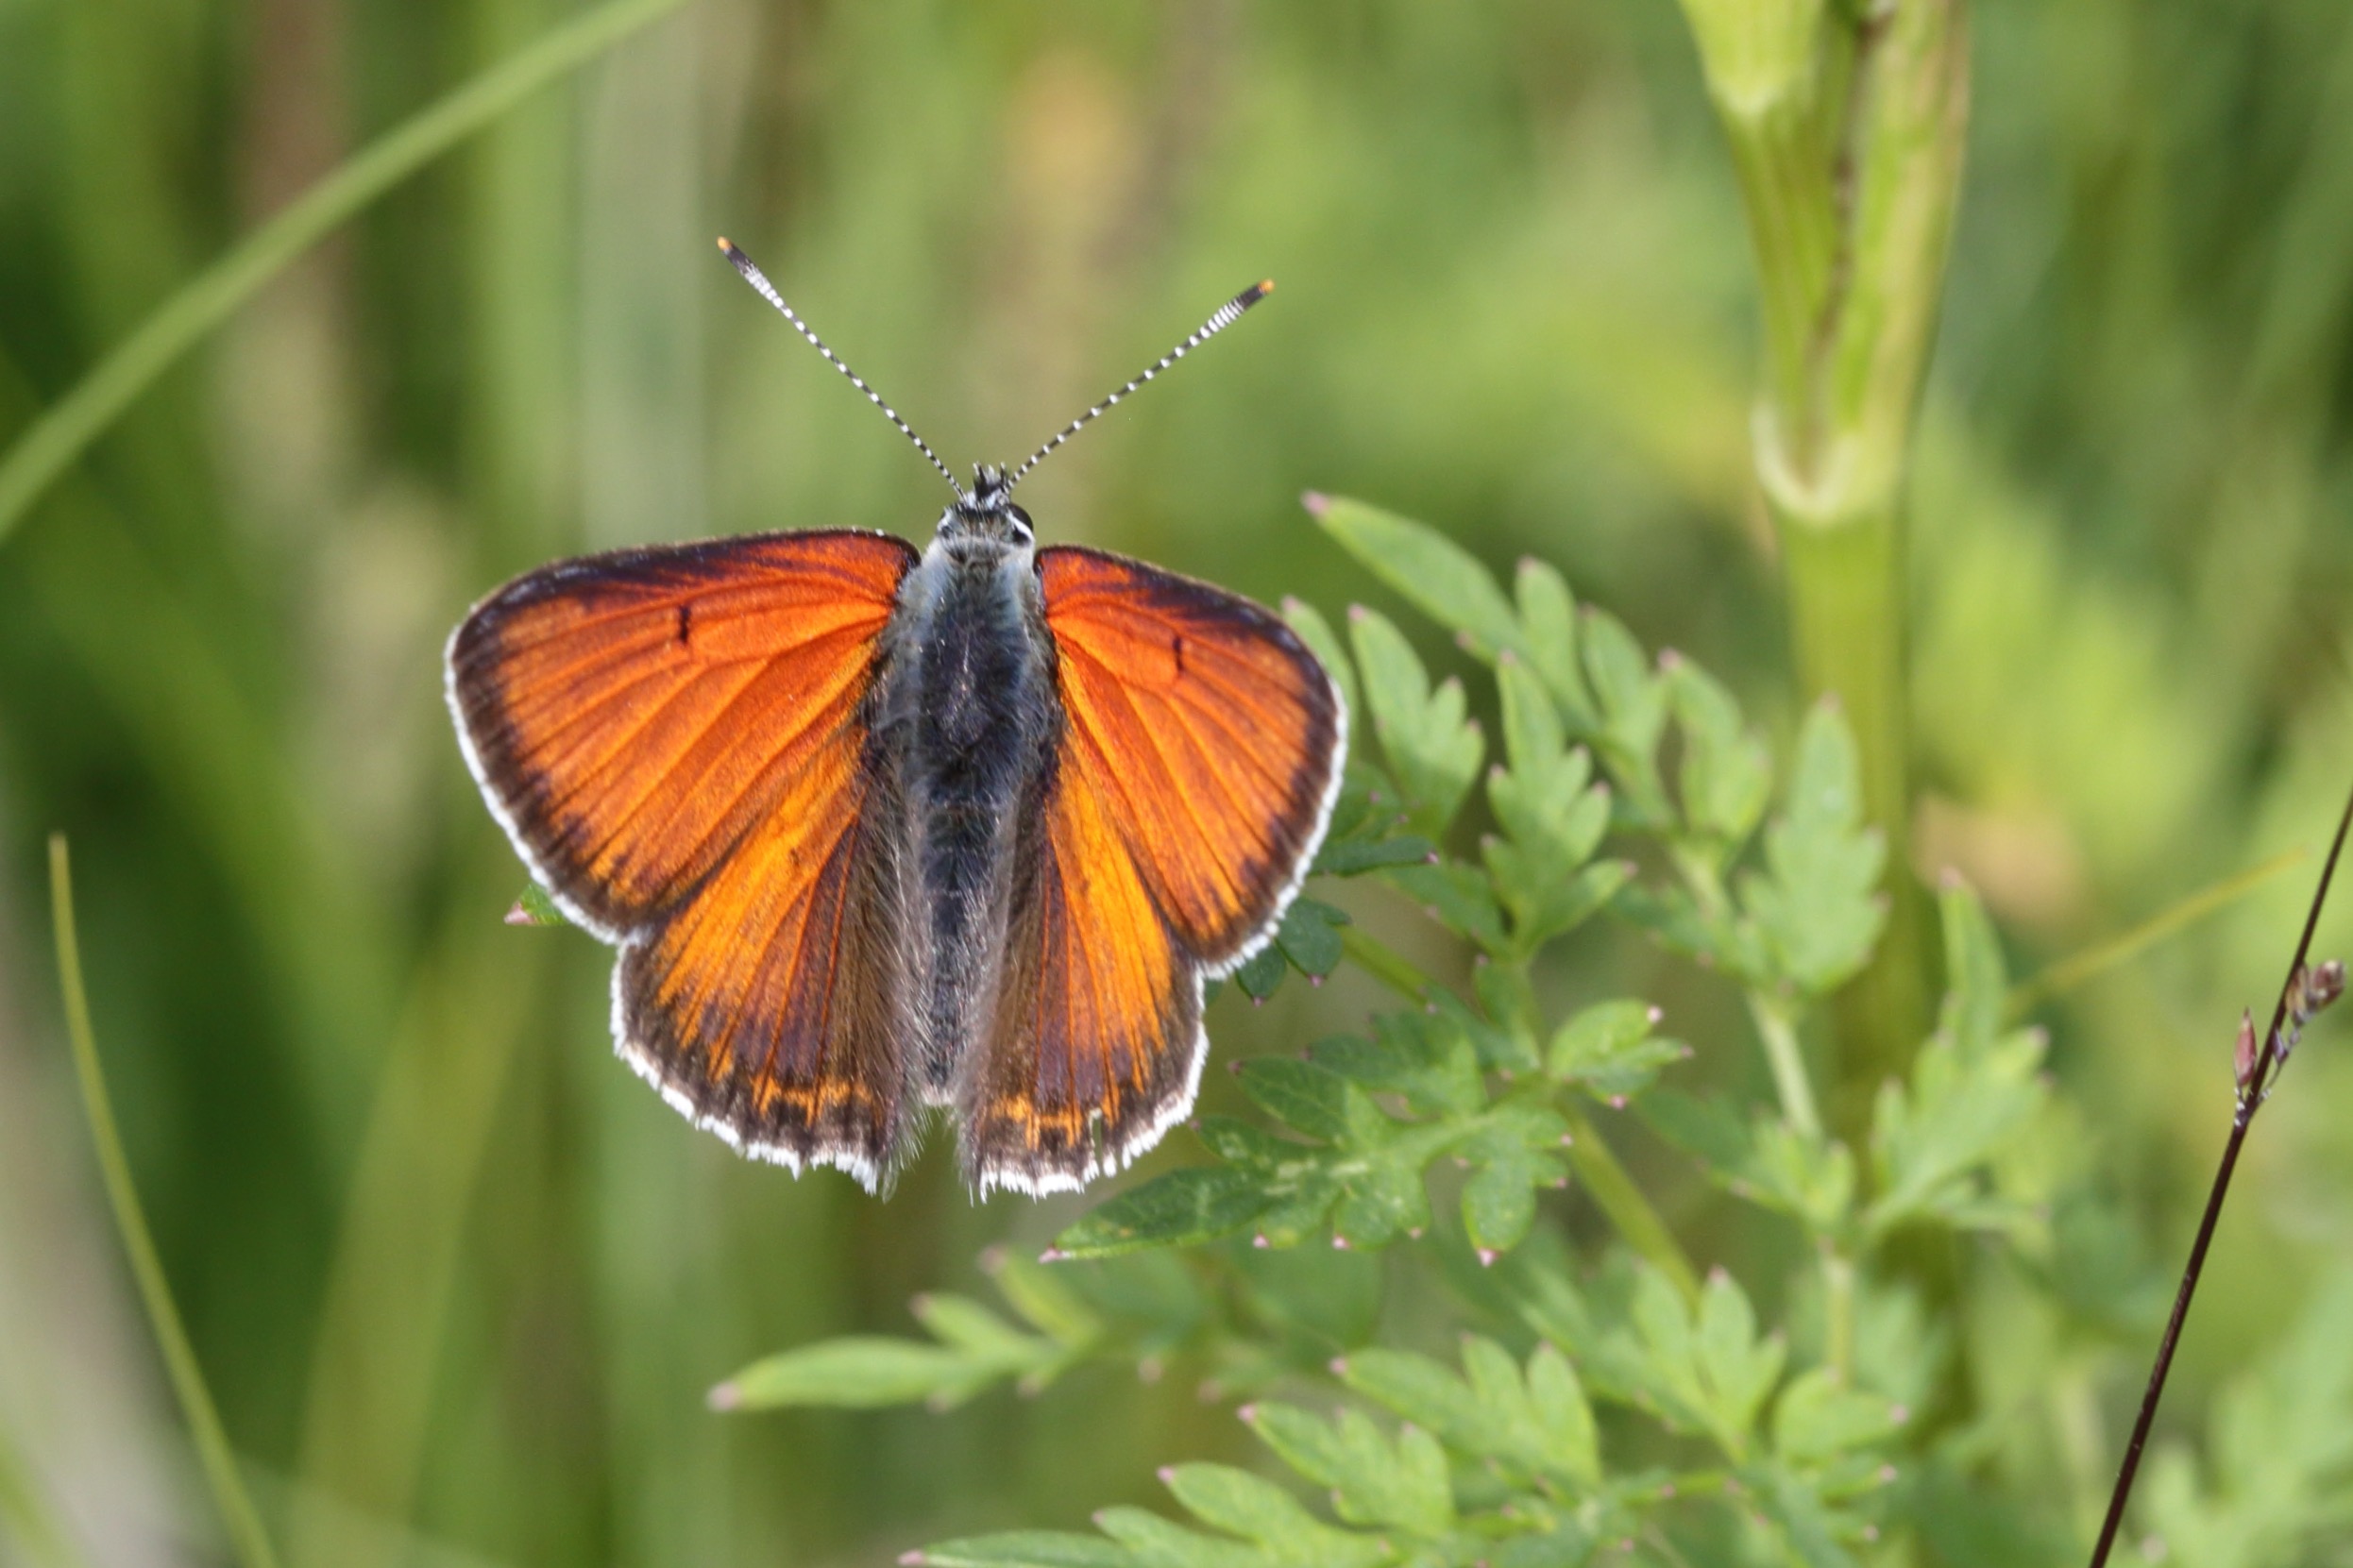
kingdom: Animalia
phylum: Arthropoda
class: Insecta
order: Lepidoptera
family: Lycaenidae
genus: Palaeochrysophanus
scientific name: Palaeochrysophanus hippothoe
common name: Violetrandet ildfugl
